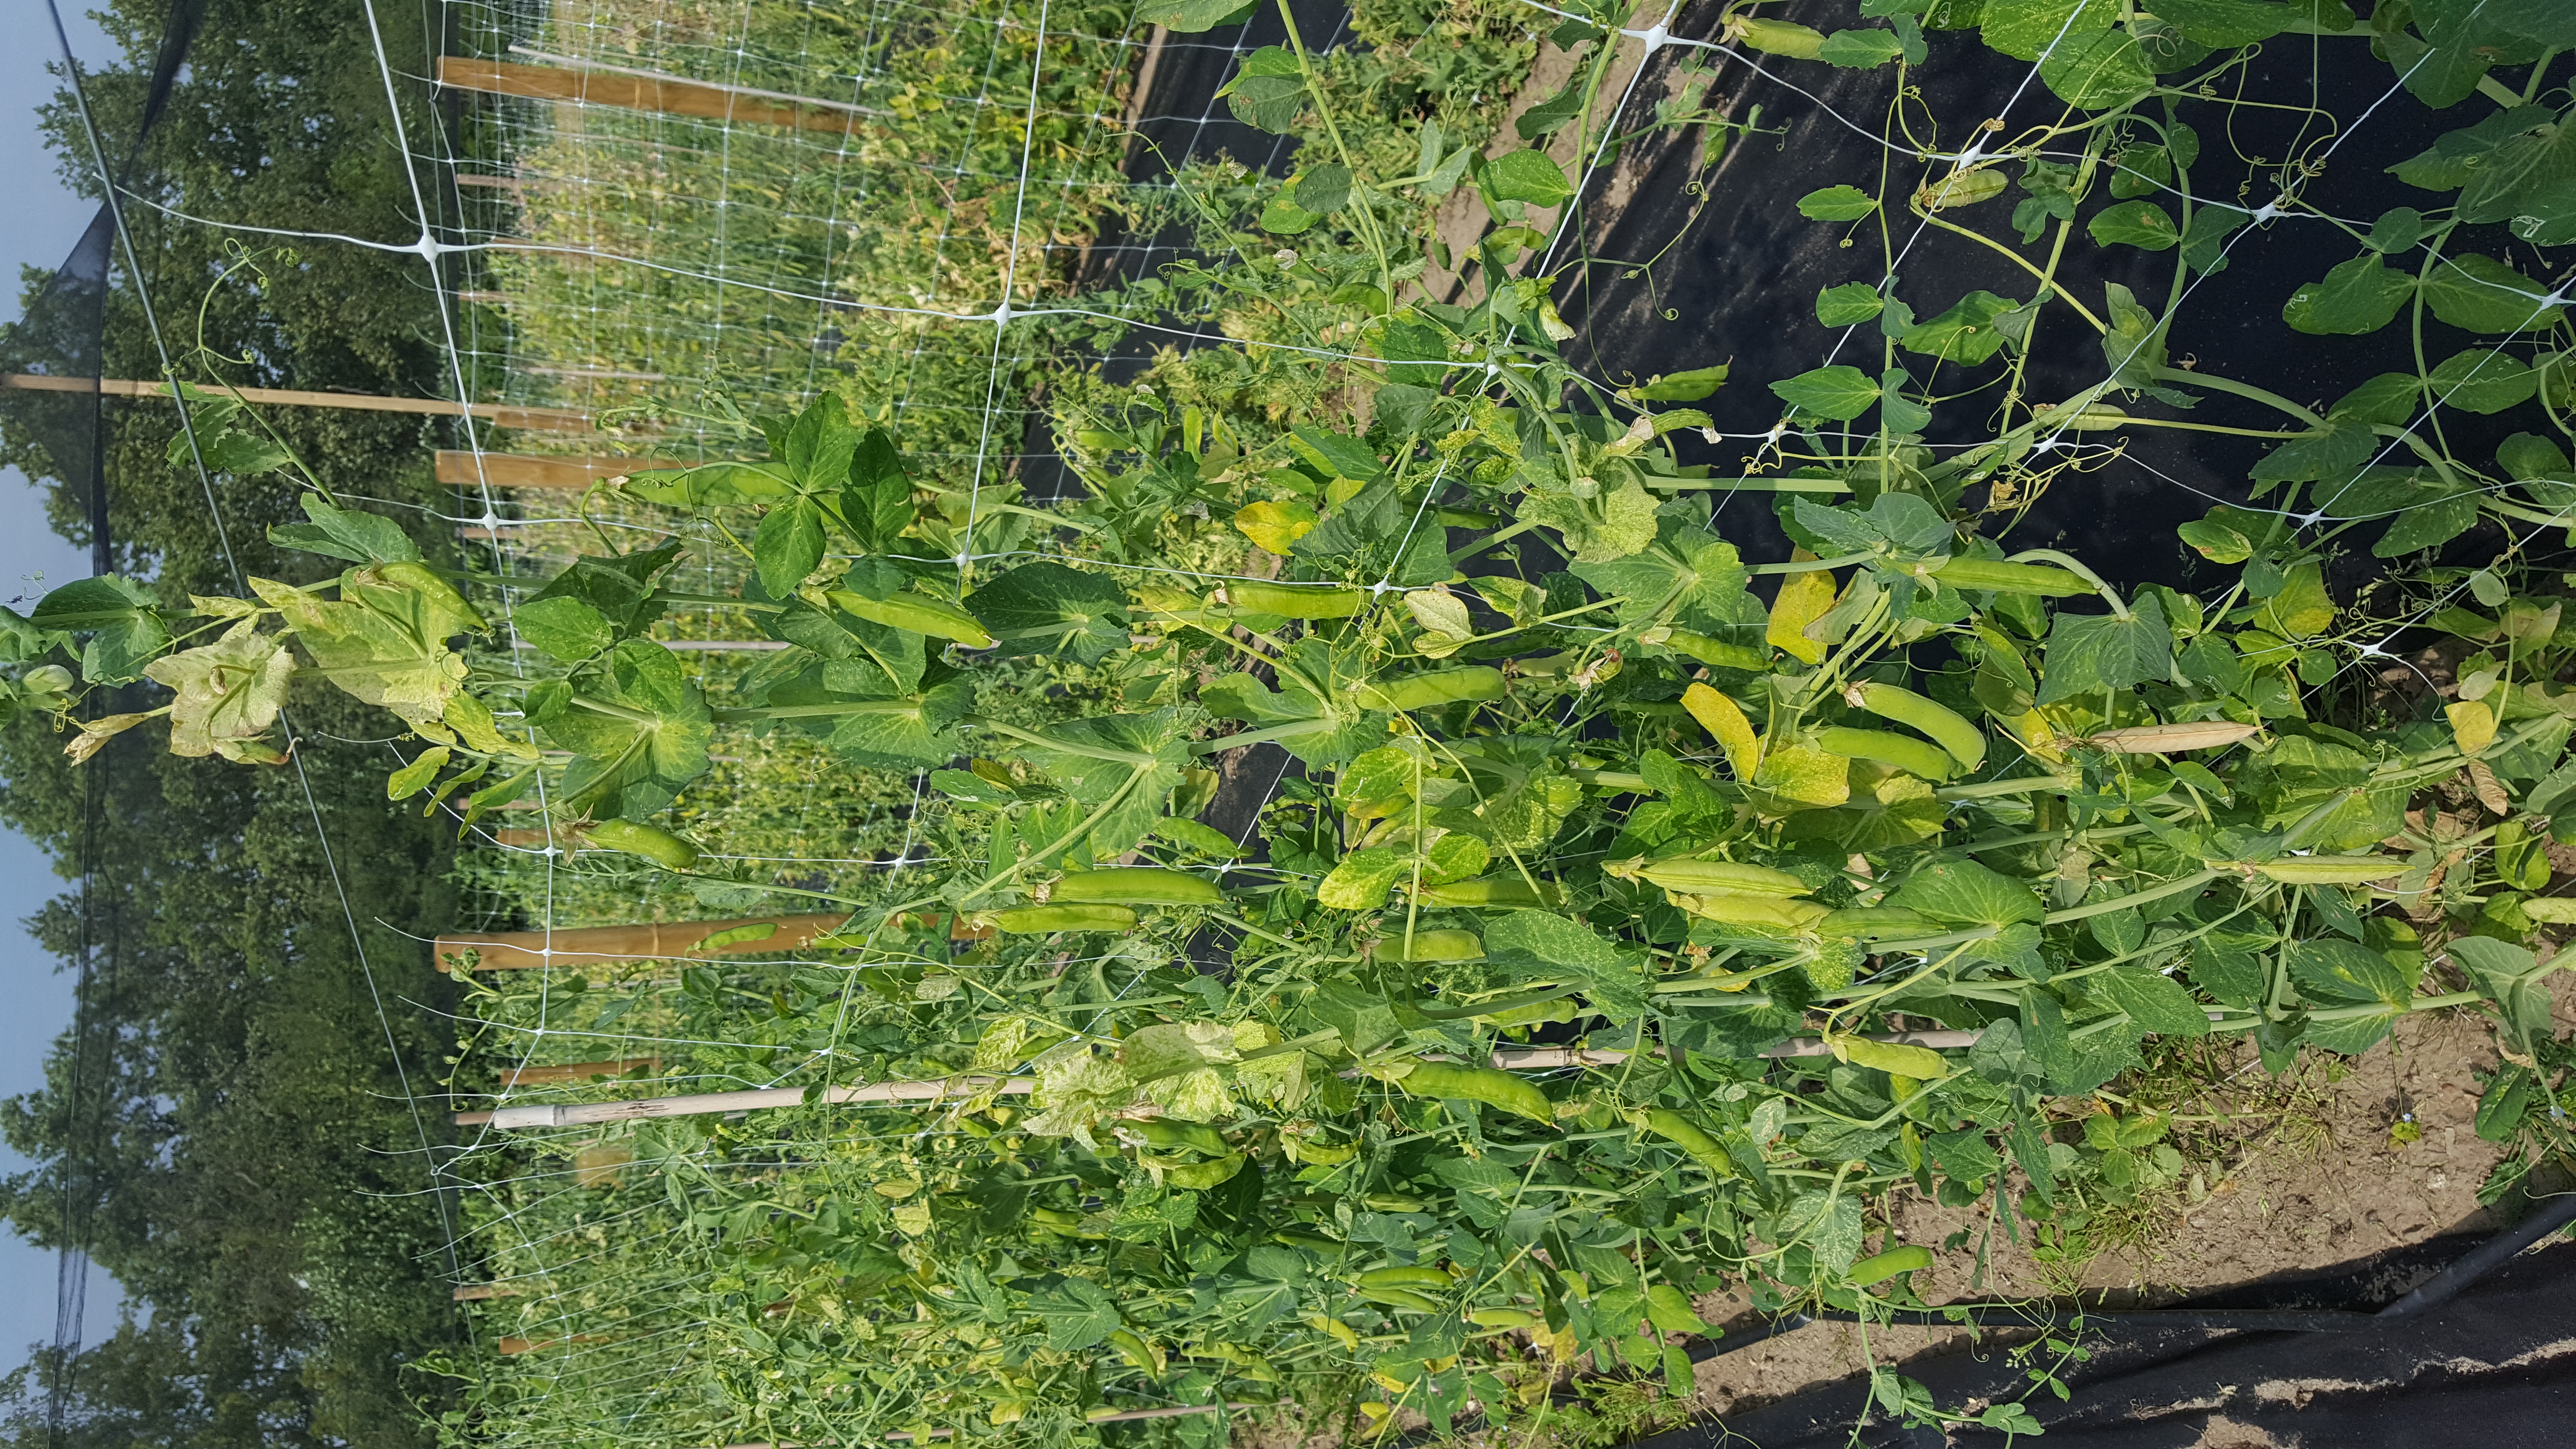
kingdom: Plantae
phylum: Tracheophyta
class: Magnoliopsida
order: Fabales
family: Fabaceae
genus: Lathyrus
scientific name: Lathyrus oleraceus
